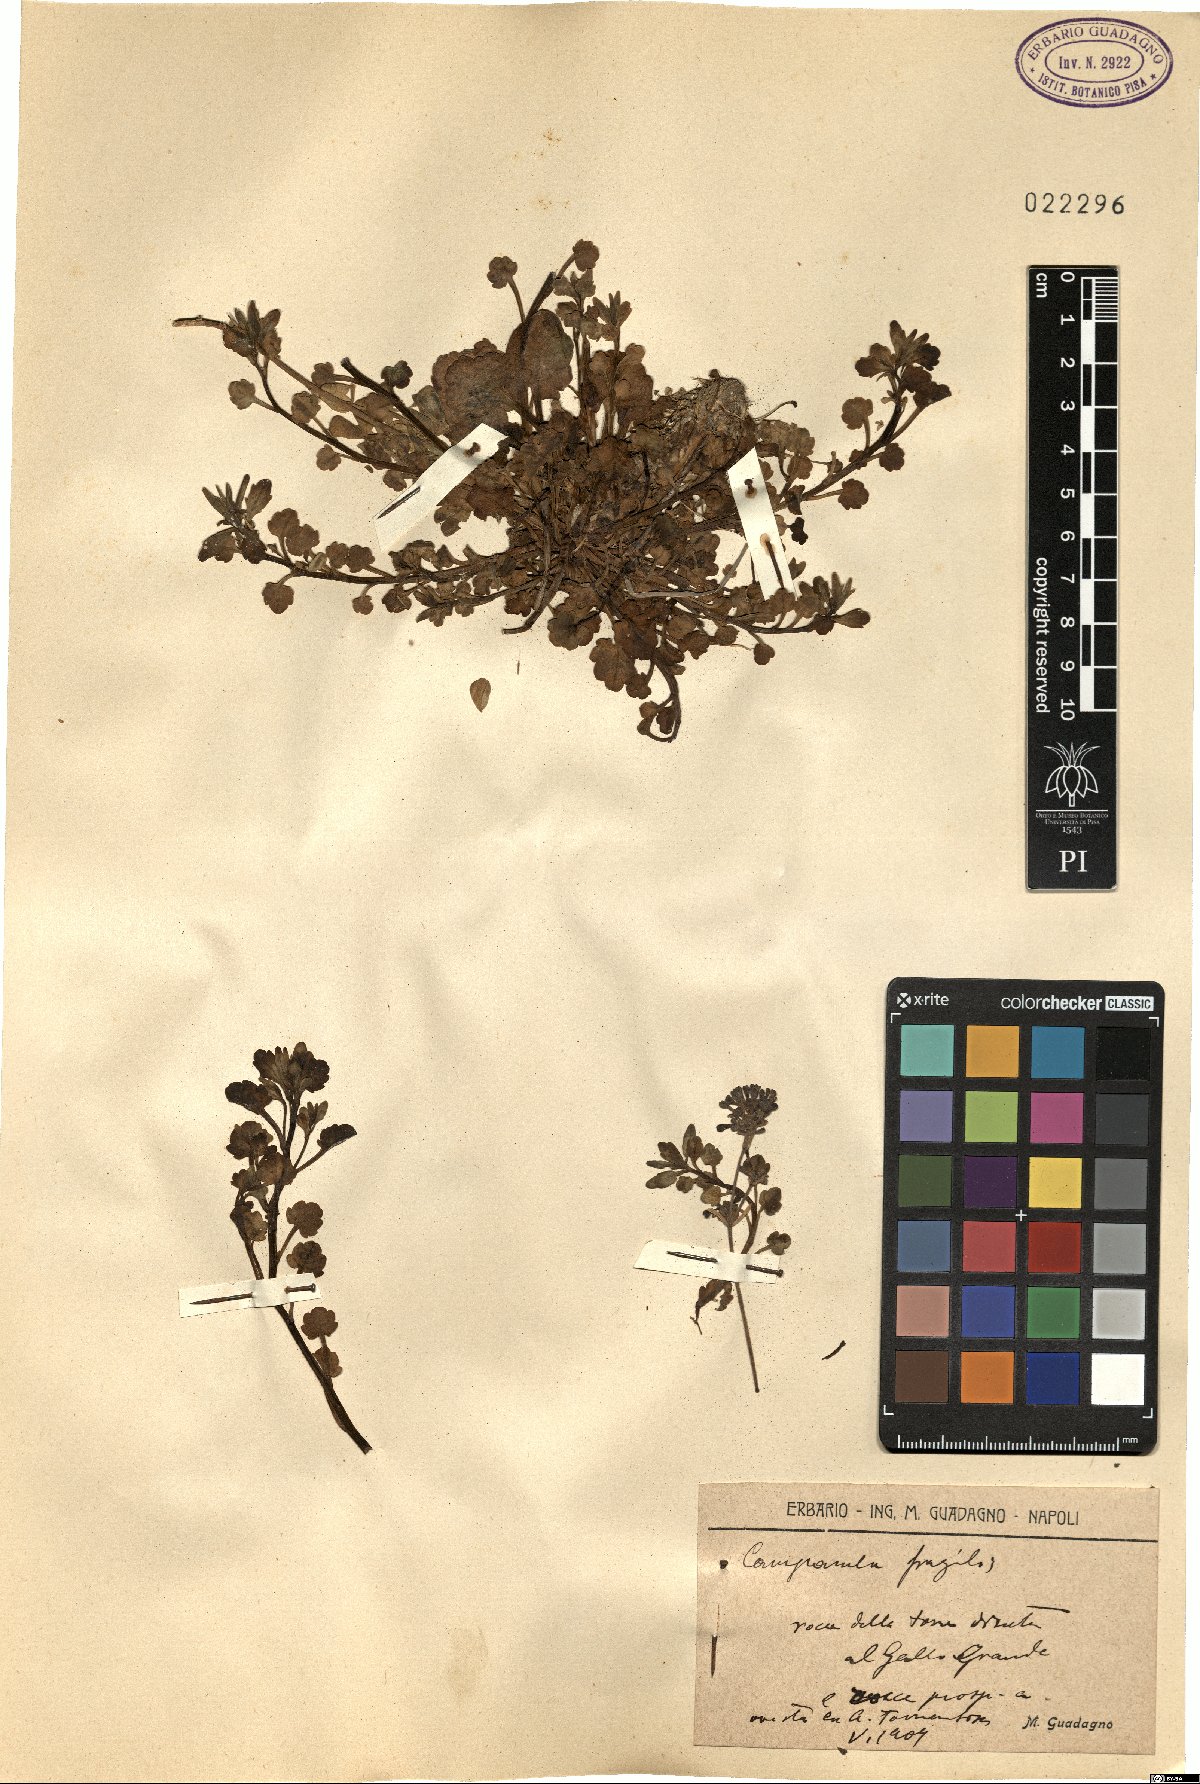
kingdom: Plantae
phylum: Tracheophyta
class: Magnoliopsida
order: Asterales
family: Campanulaceae
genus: Campanula
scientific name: Campanula fragilis
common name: Italian bellflower
